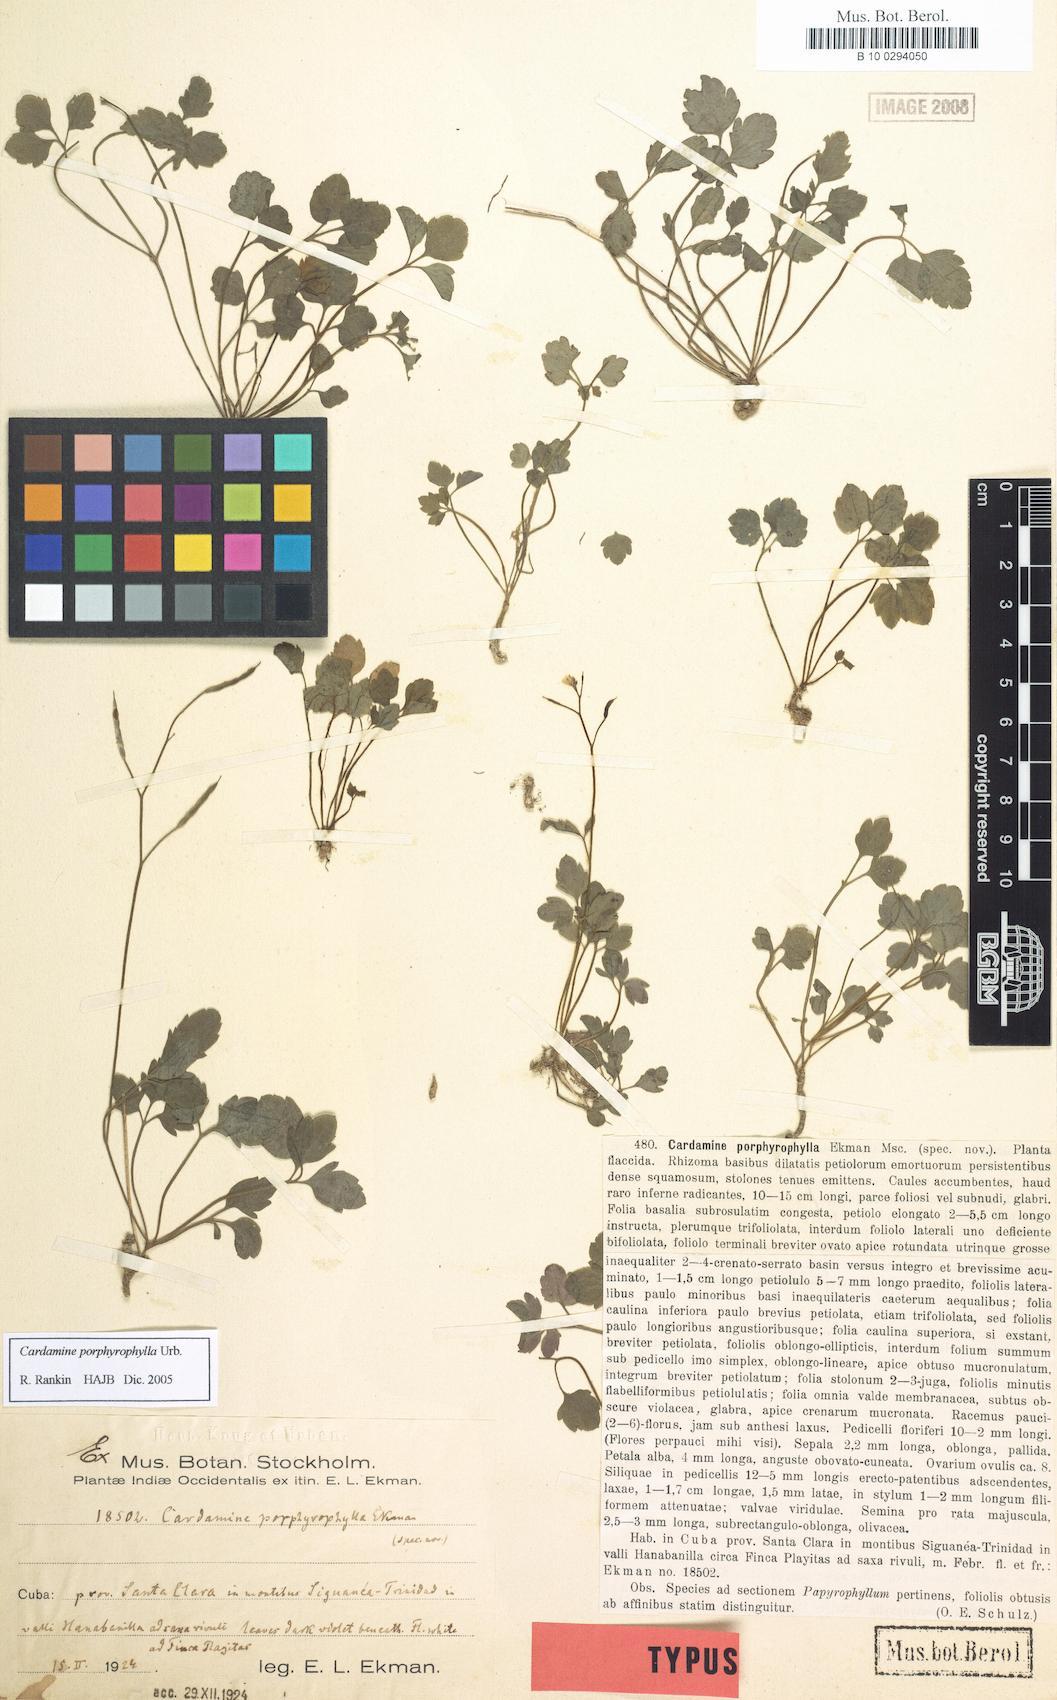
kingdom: Plantae
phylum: Tracheophyta
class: Magnoliopsida
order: Brassicales
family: Brassicaceae
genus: Cardamine
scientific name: Cardamine africana
